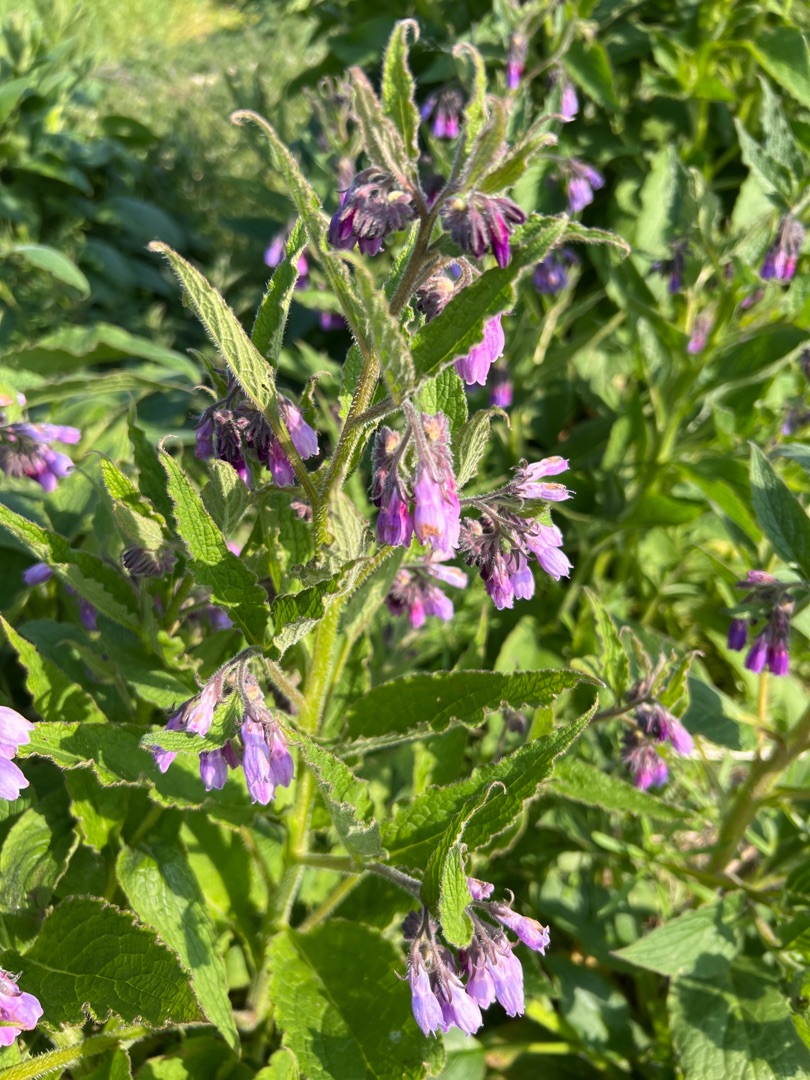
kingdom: Plantae
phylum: Tracheophyta
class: Magnoliopsida
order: Boraginales
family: Boraginaceae
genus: Symphytum
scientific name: Symphytum uplandicum
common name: Foder-kulsukker
